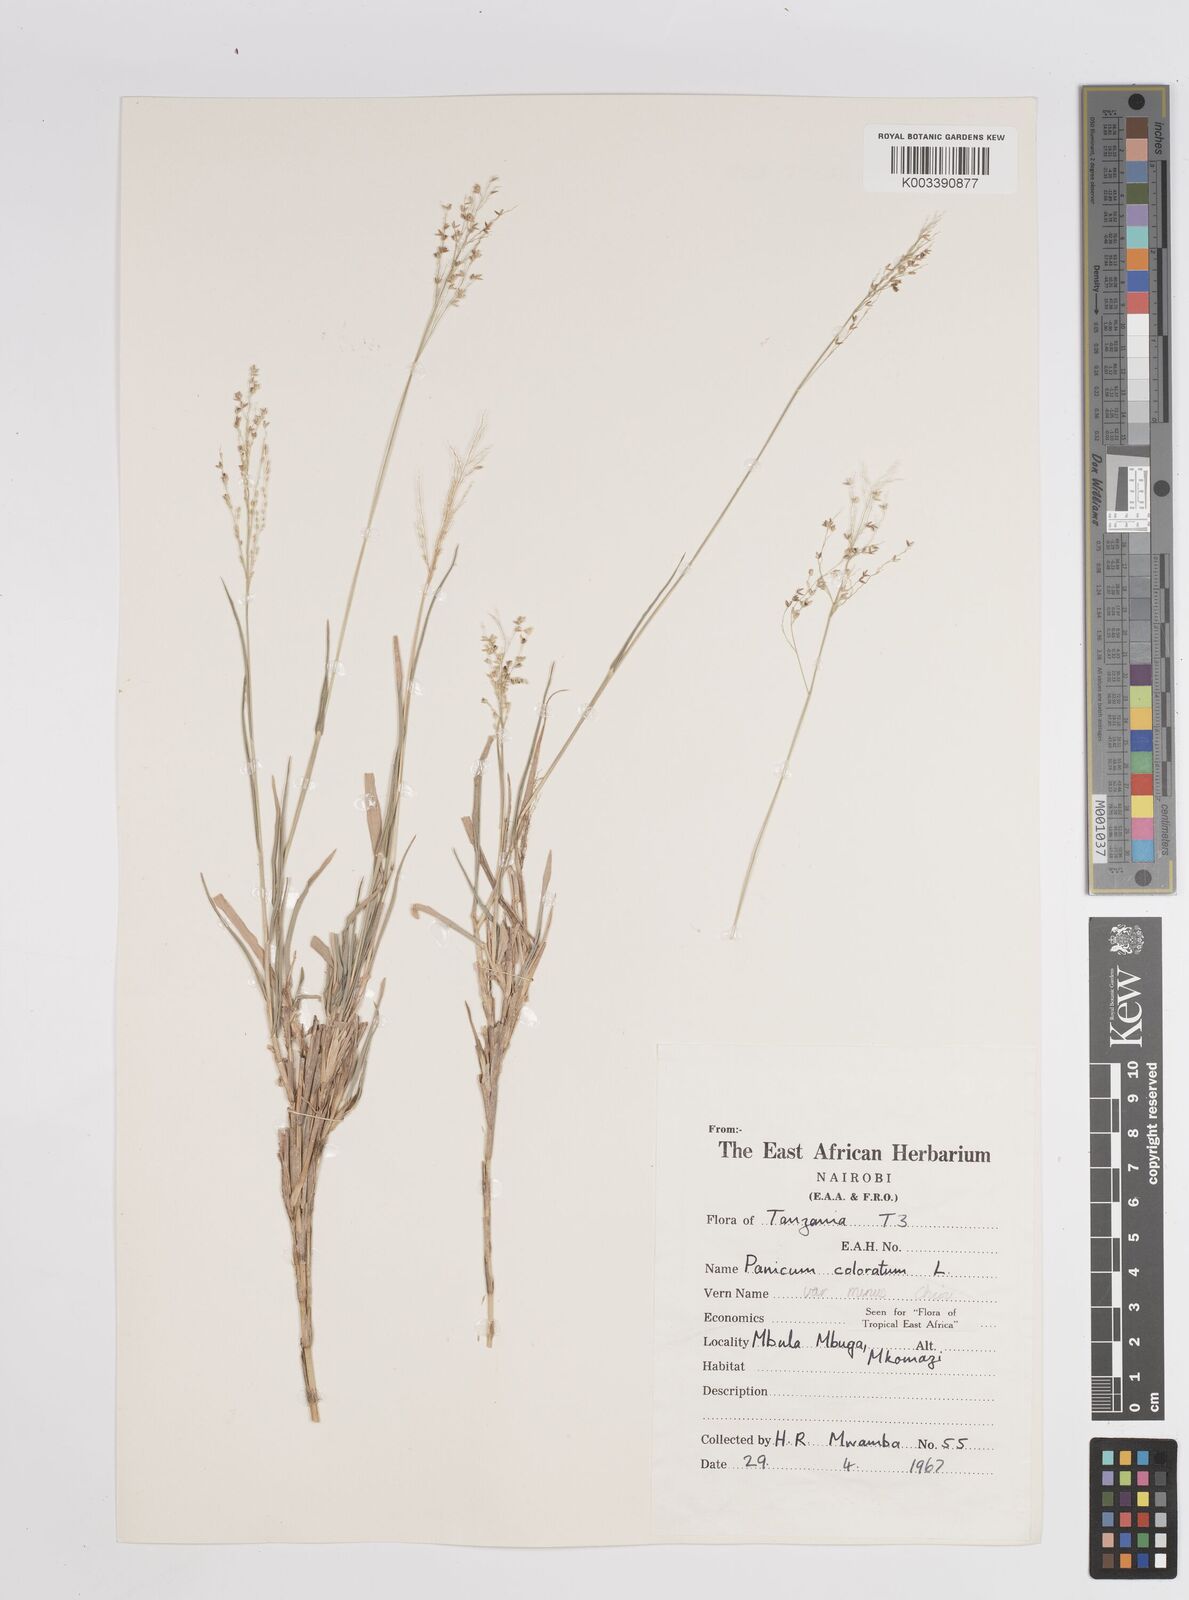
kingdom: Plantae
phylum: Tracheophyta
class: Liliopsida
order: Poales
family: Poaceae
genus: Panicum
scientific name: Panicum coloratum
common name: Kleingrass
